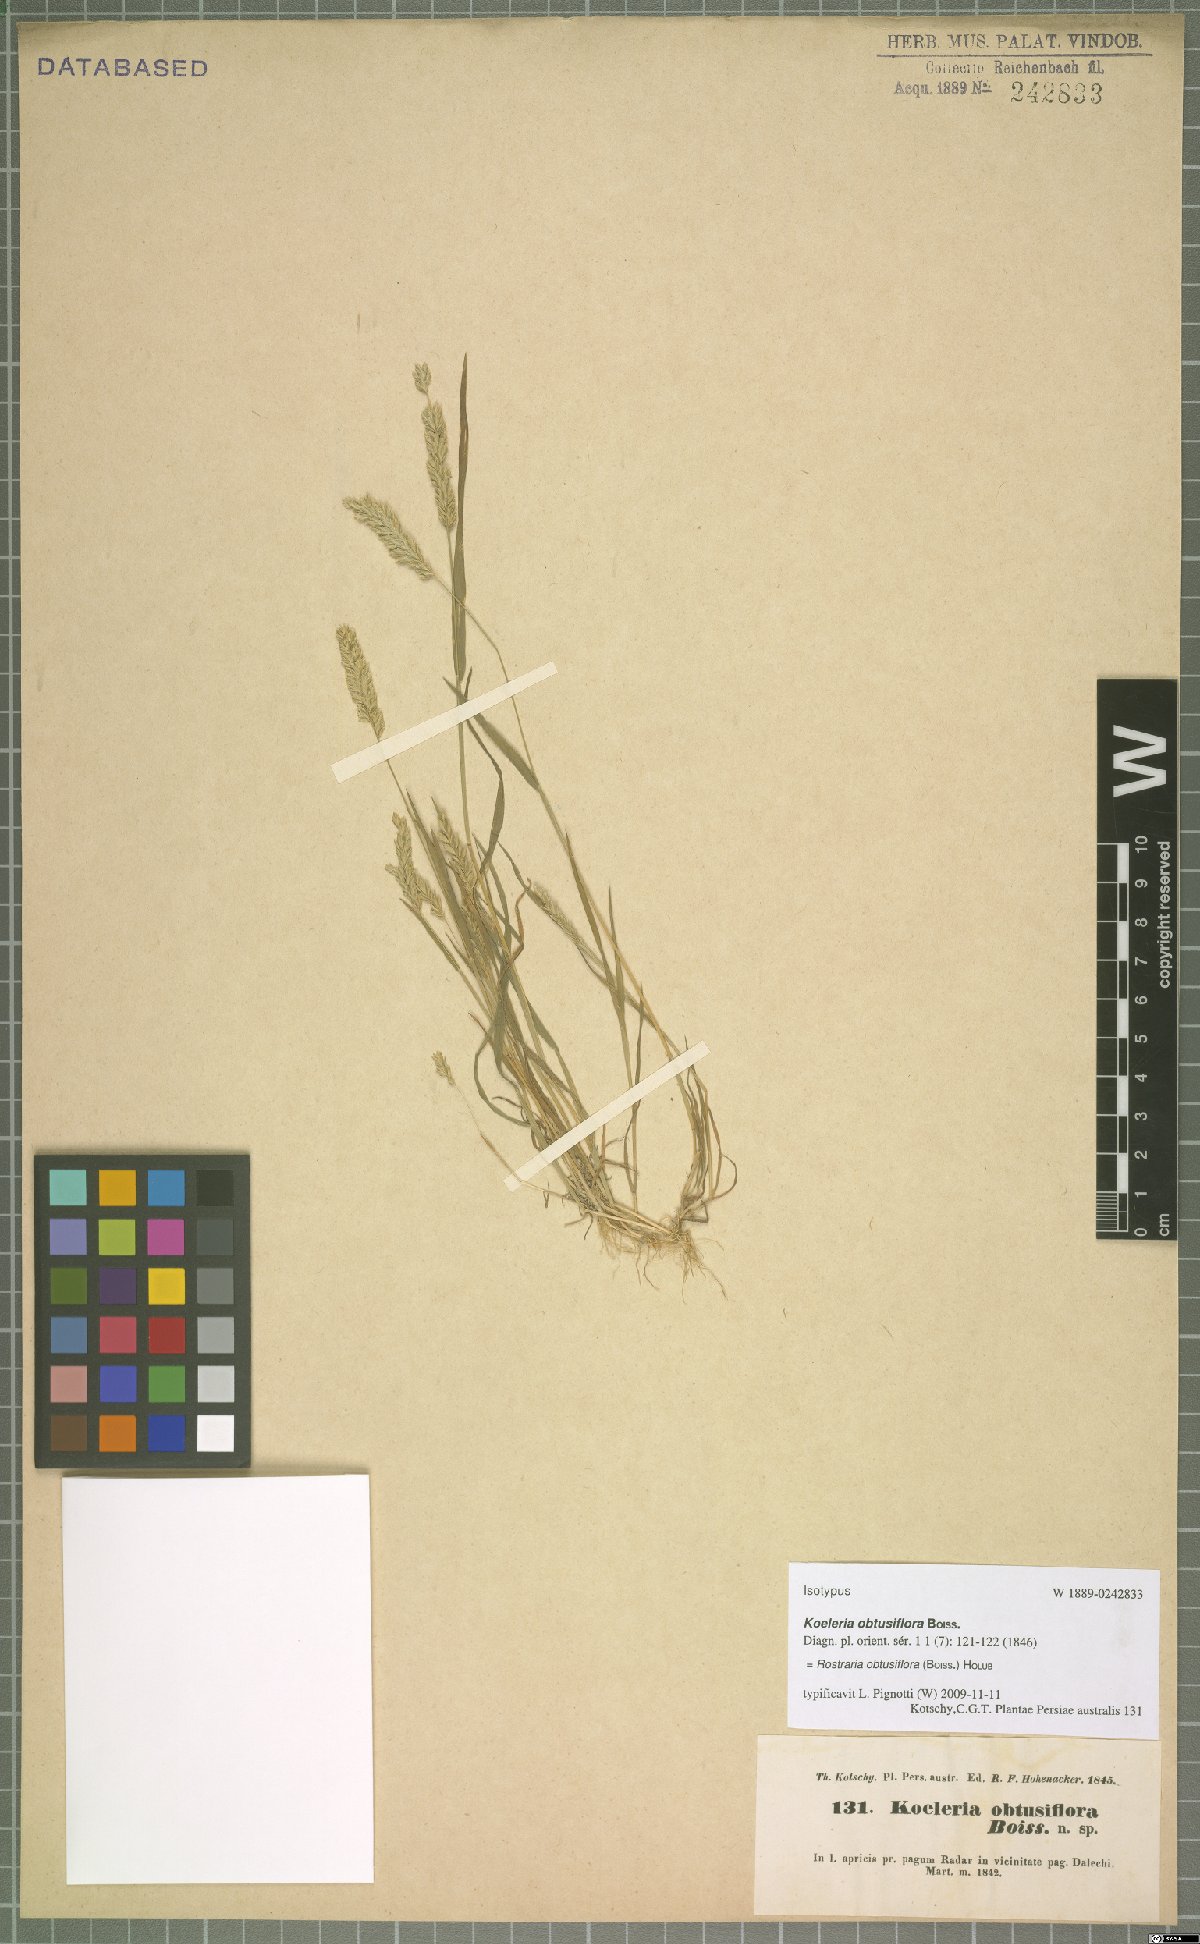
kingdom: Plantae
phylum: Tracheophyta
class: Liliopsida
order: Poales
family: Poaceae
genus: Rostraria
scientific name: Rostraria obtusiflora
